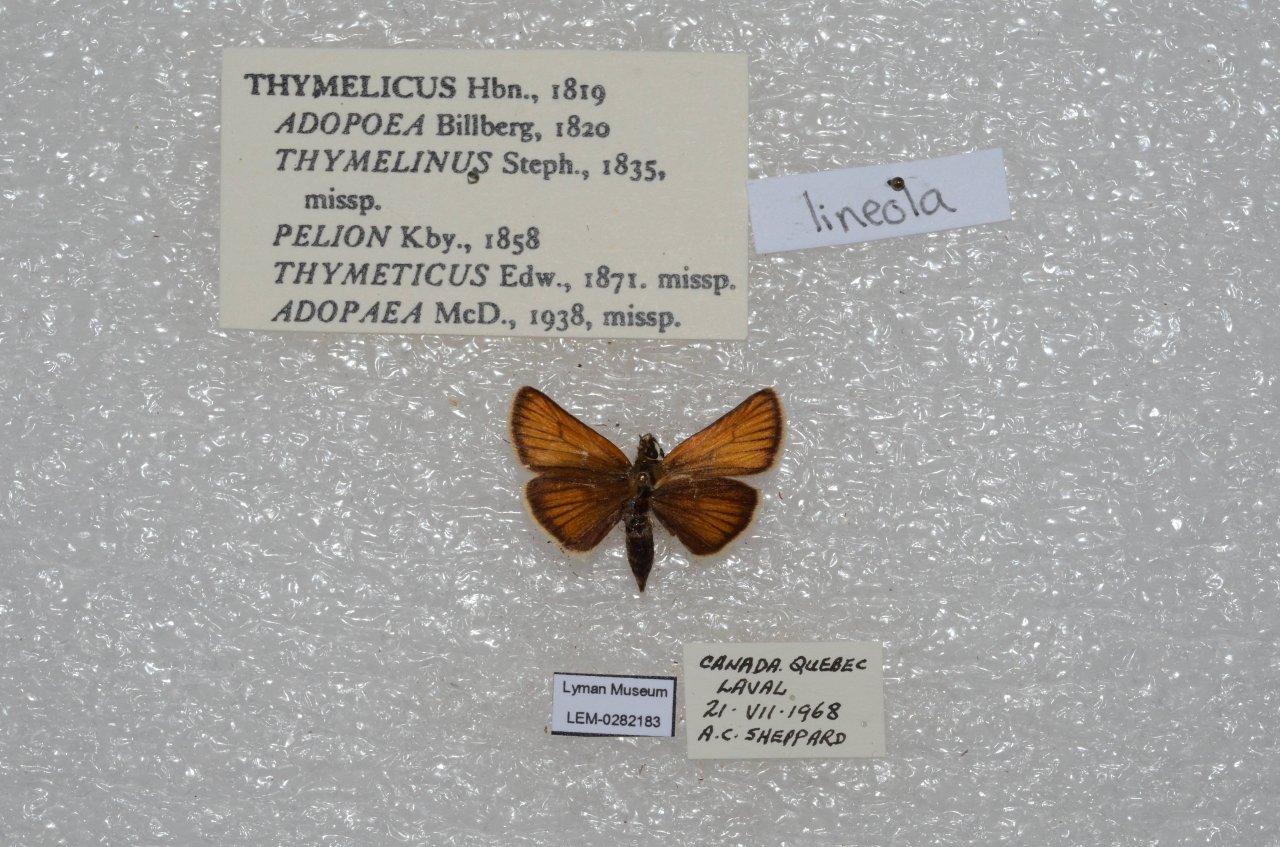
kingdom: Animalia
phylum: Arthropoda
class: Insecta
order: Lepidoptera
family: Hesperiidae
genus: Thymelicus
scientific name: Thymelicus lineola
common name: European Skipper
